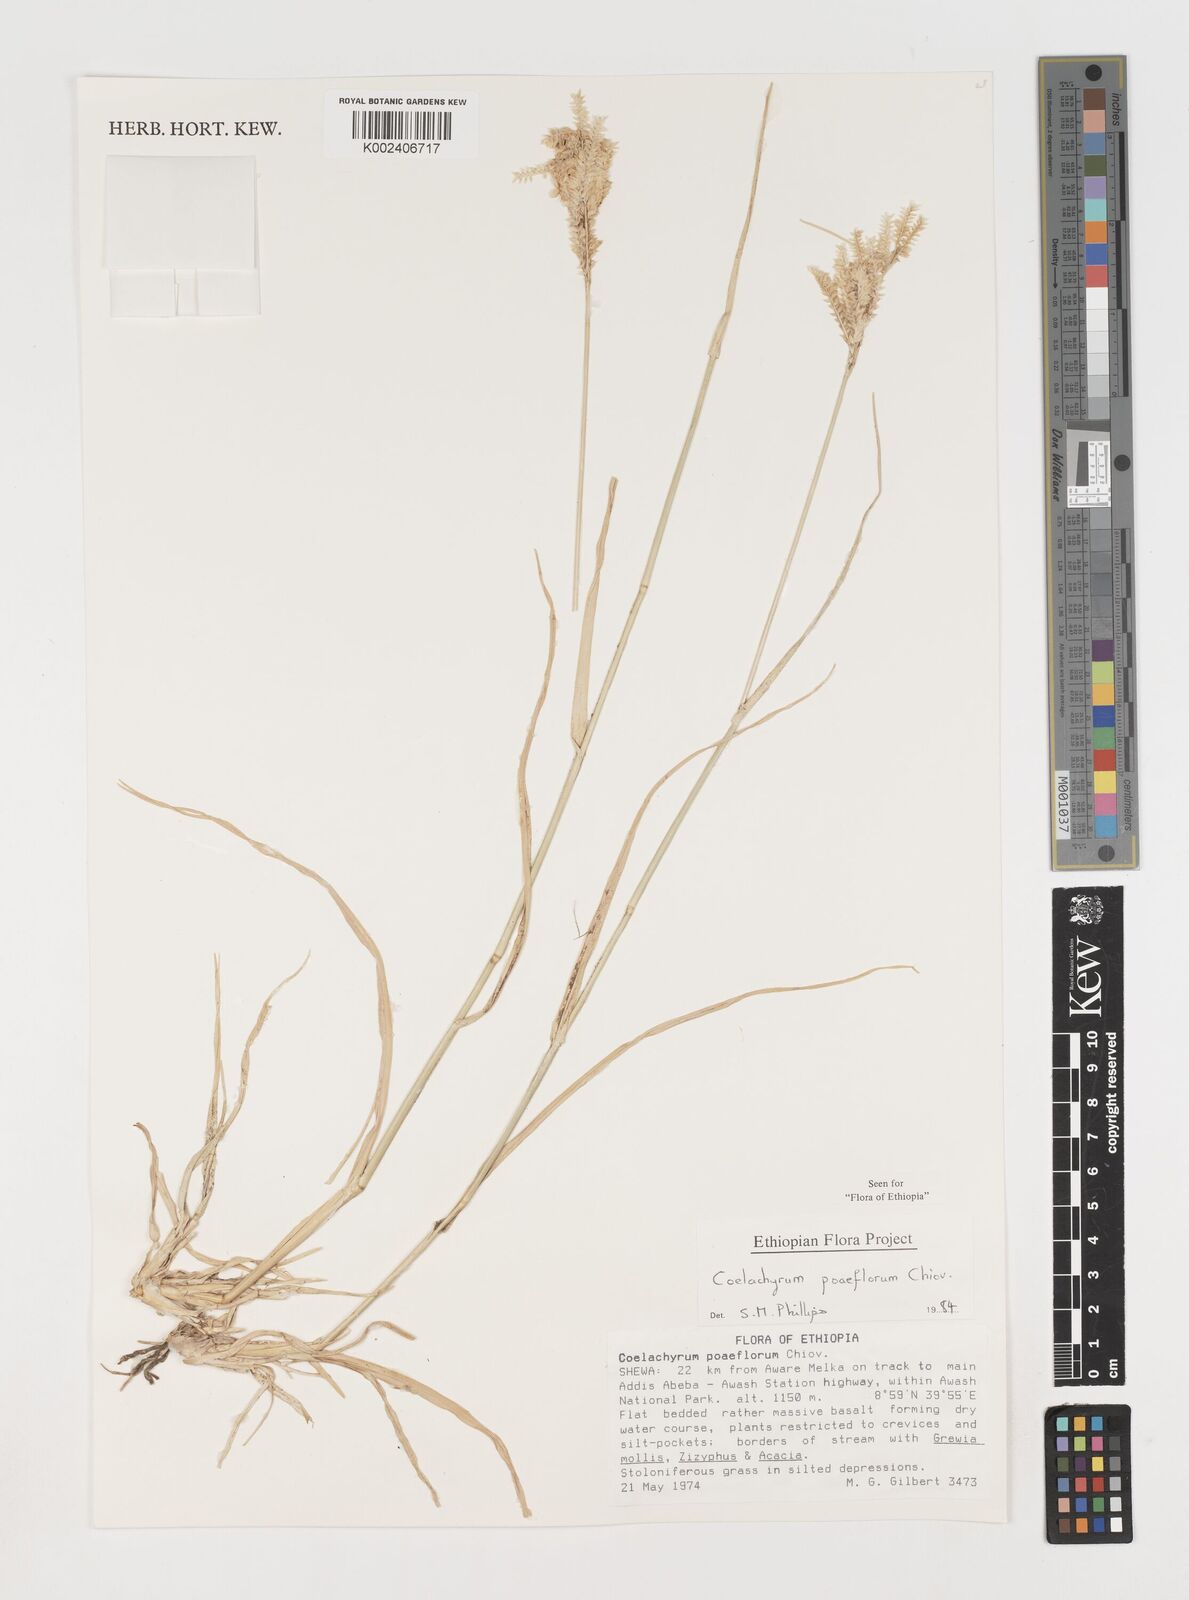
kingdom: Plantae
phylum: Tracheophyta
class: Liliopsida
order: Poales
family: Poaceae
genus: Coelachyrum
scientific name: Coelachyrum poiflorum
